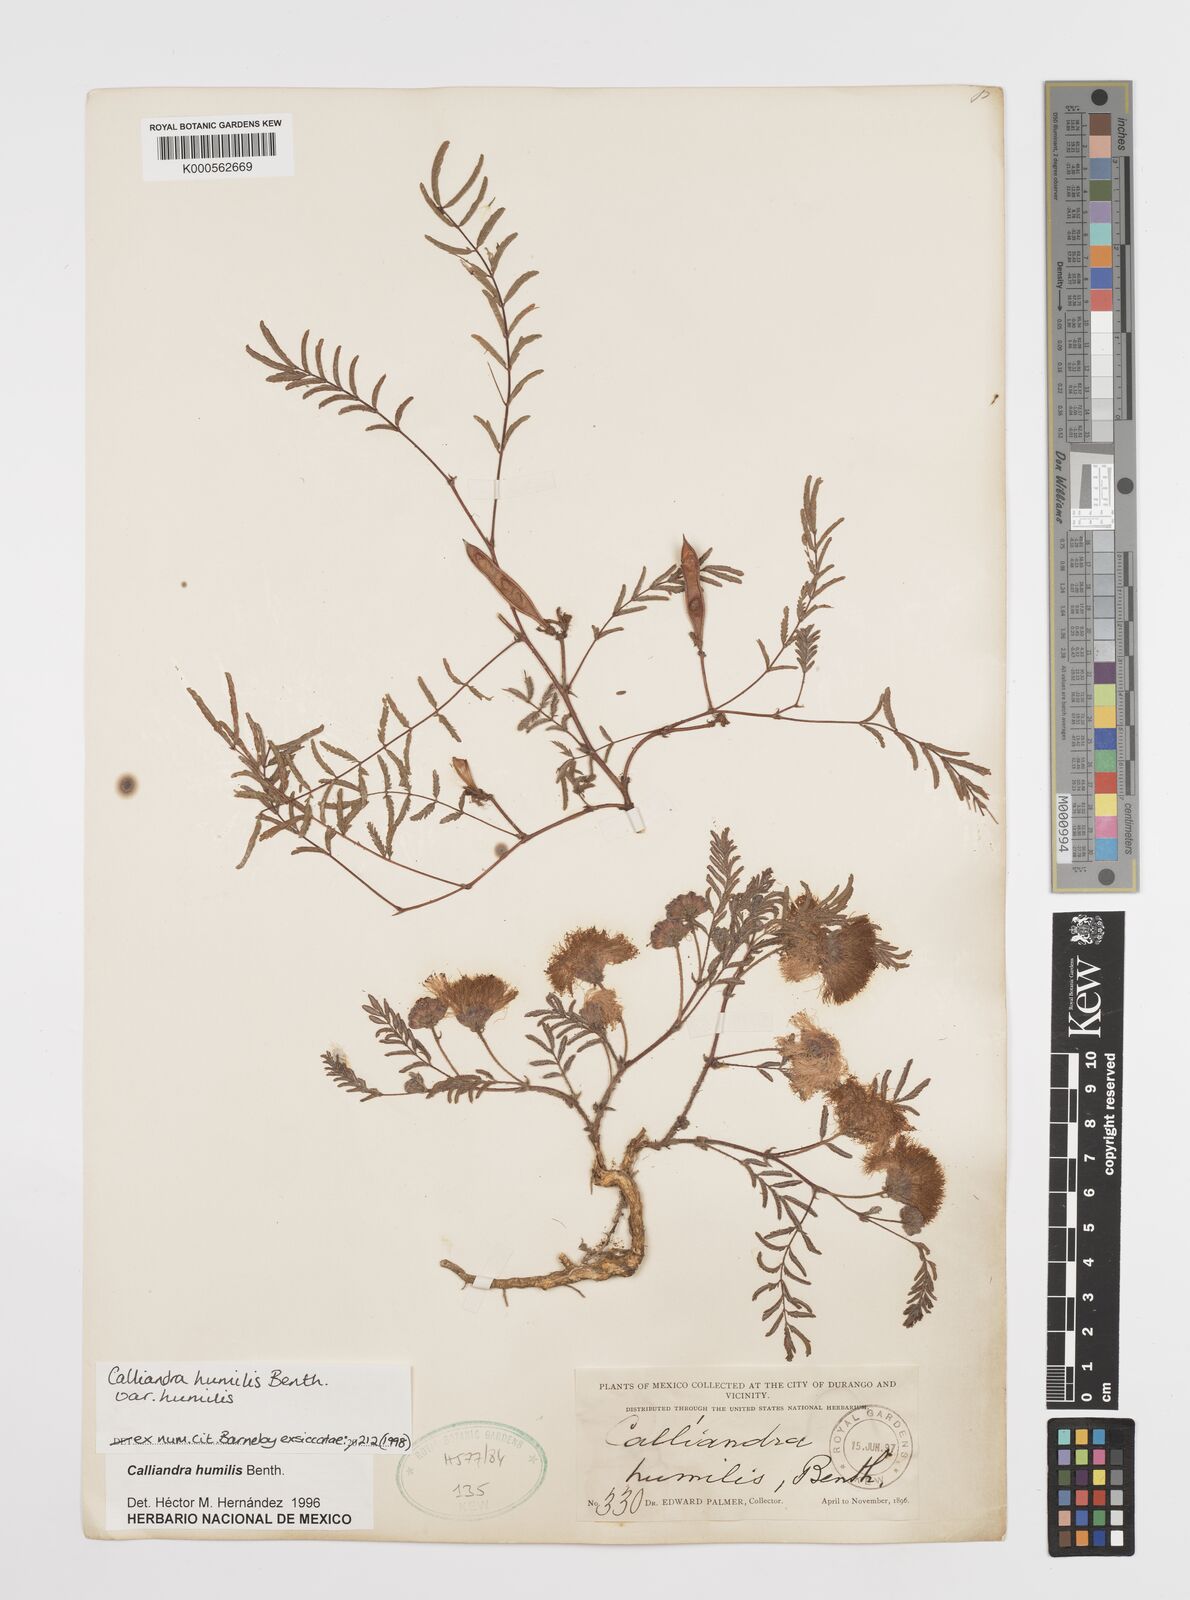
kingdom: Plantae
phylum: Tracheophyta
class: Magnoliopsida
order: Fabales
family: Fabaceae
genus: Calliandra
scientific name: Calliandra humilis
